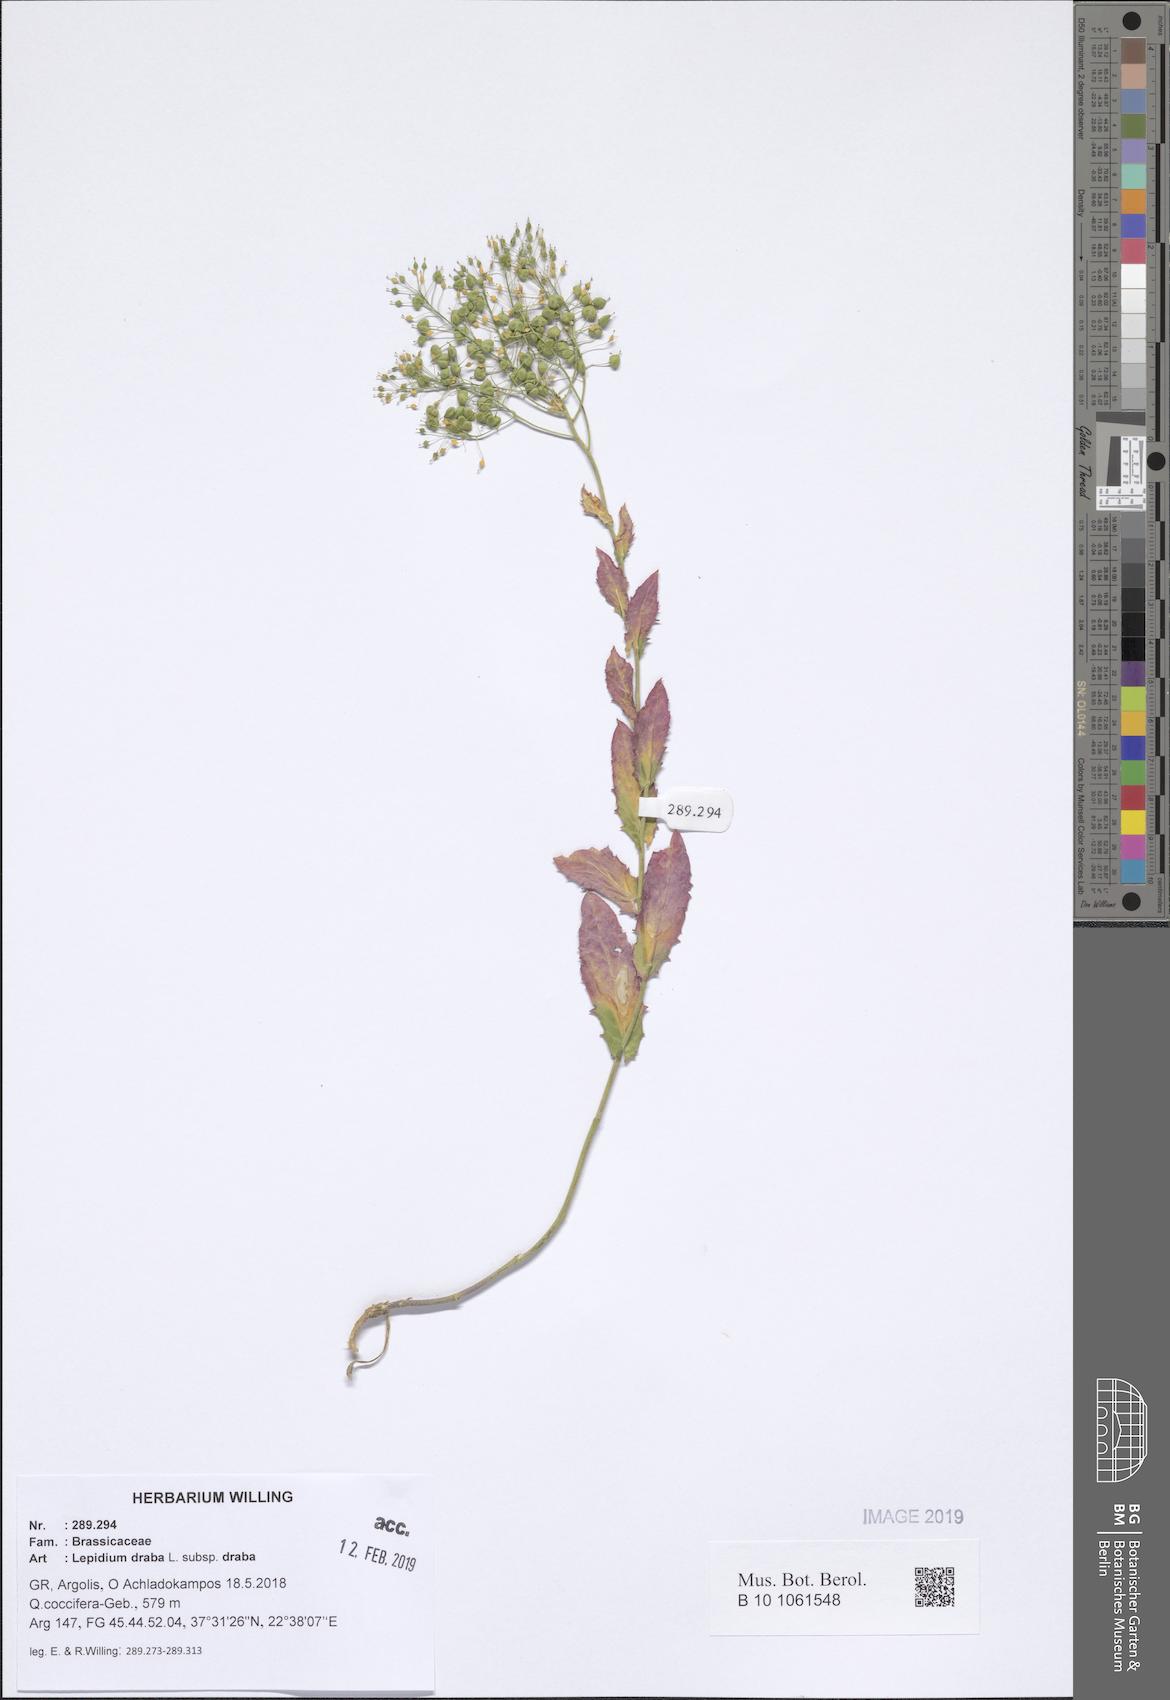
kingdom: Plantae
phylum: Tracheophyta
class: Magnoliopsida
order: Brassicales
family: Brassicaceae
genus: Lepidium
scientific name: Lepidium draba
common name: Hoary cress
